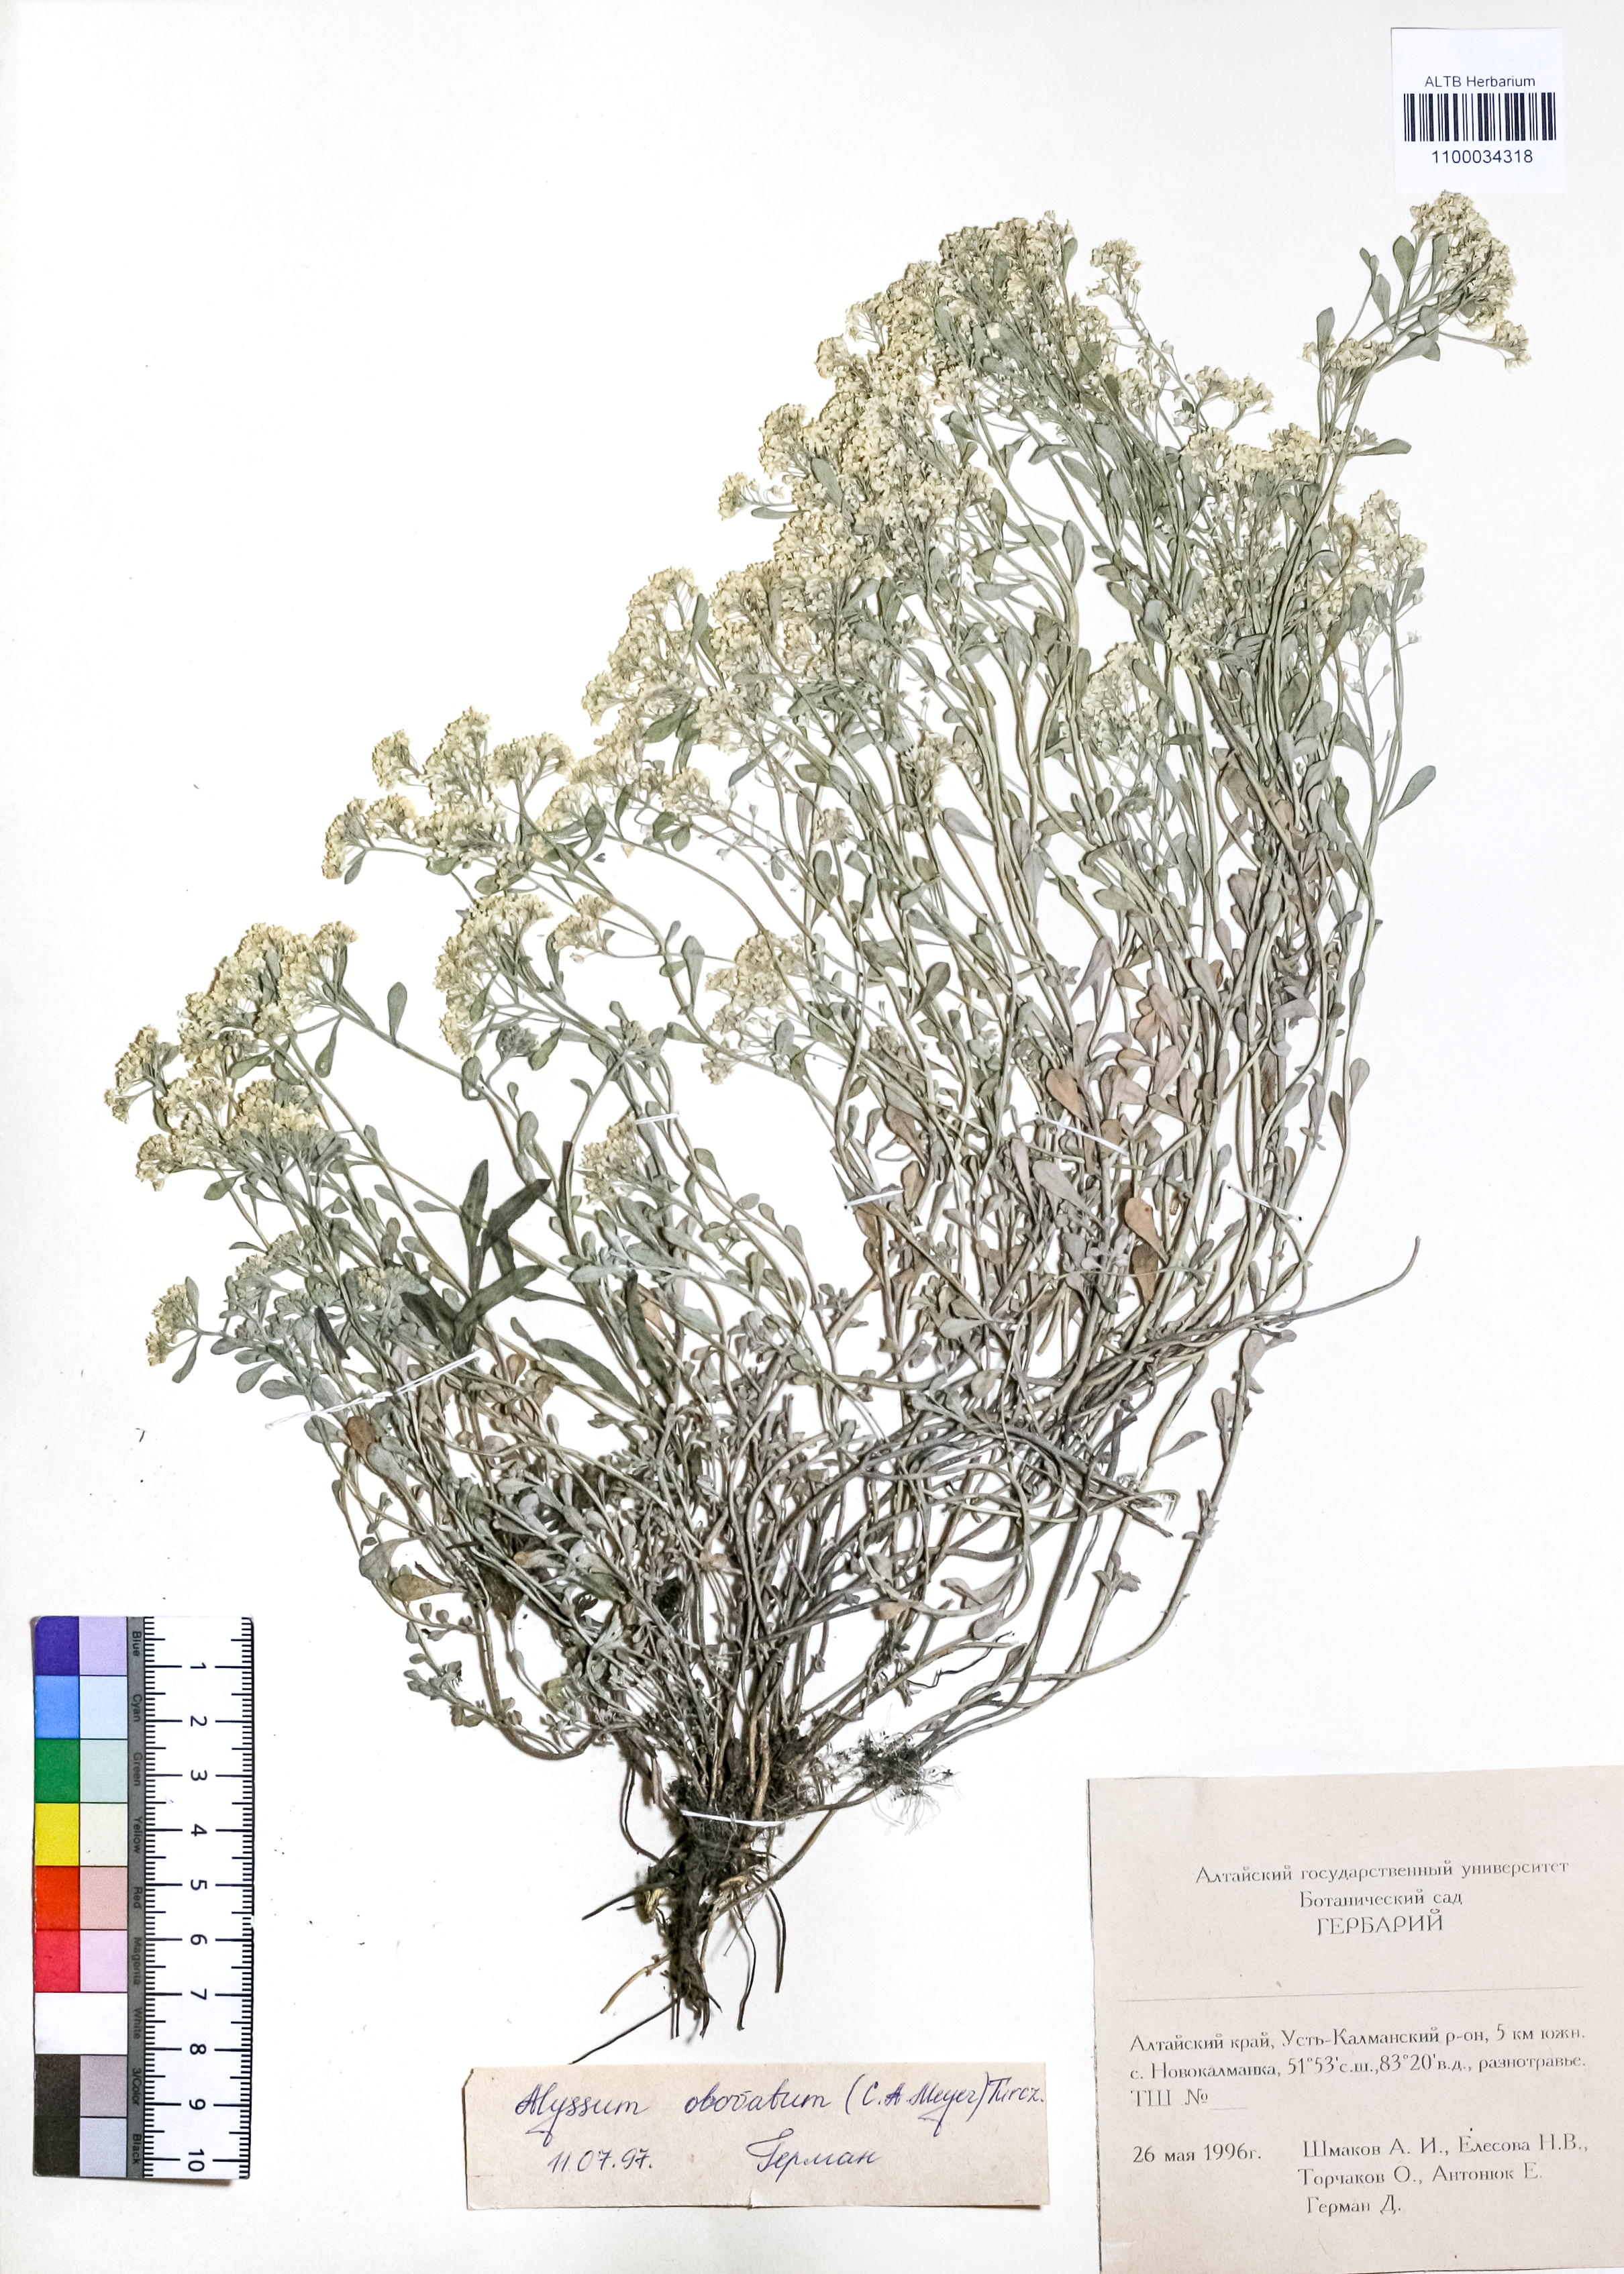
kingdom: Plantae
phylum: Tracheophyta
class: Magnoliopsida
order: Brassicales
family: Brassicaceae
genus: Odontarrhena
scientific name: Odontarrhena obovata
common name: American alyssum
